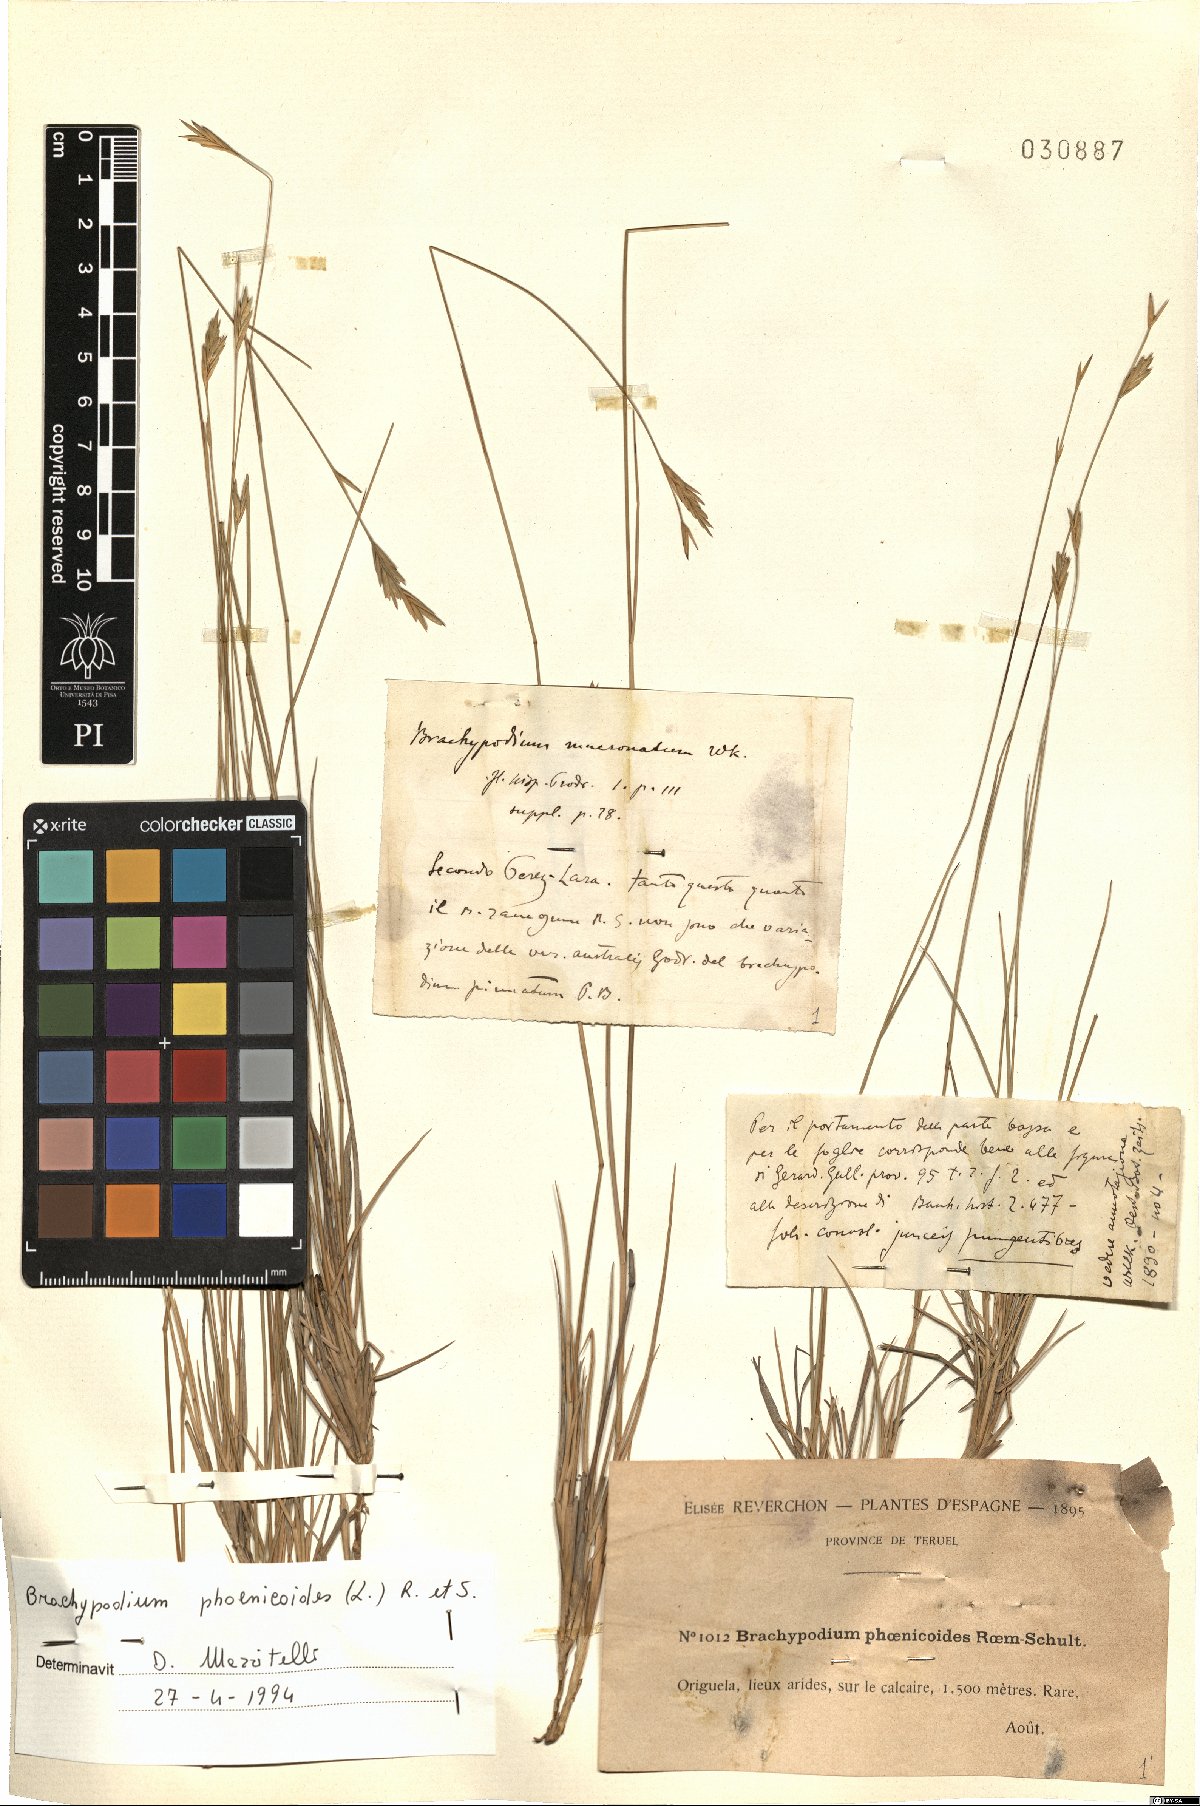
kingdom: Plantae
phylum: Tracheophyta
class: Liliopsida
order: Poales
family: Poaceae
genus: Brachypodium
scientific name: Brachypodium phoenicoides
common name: Thinleaf false brome
